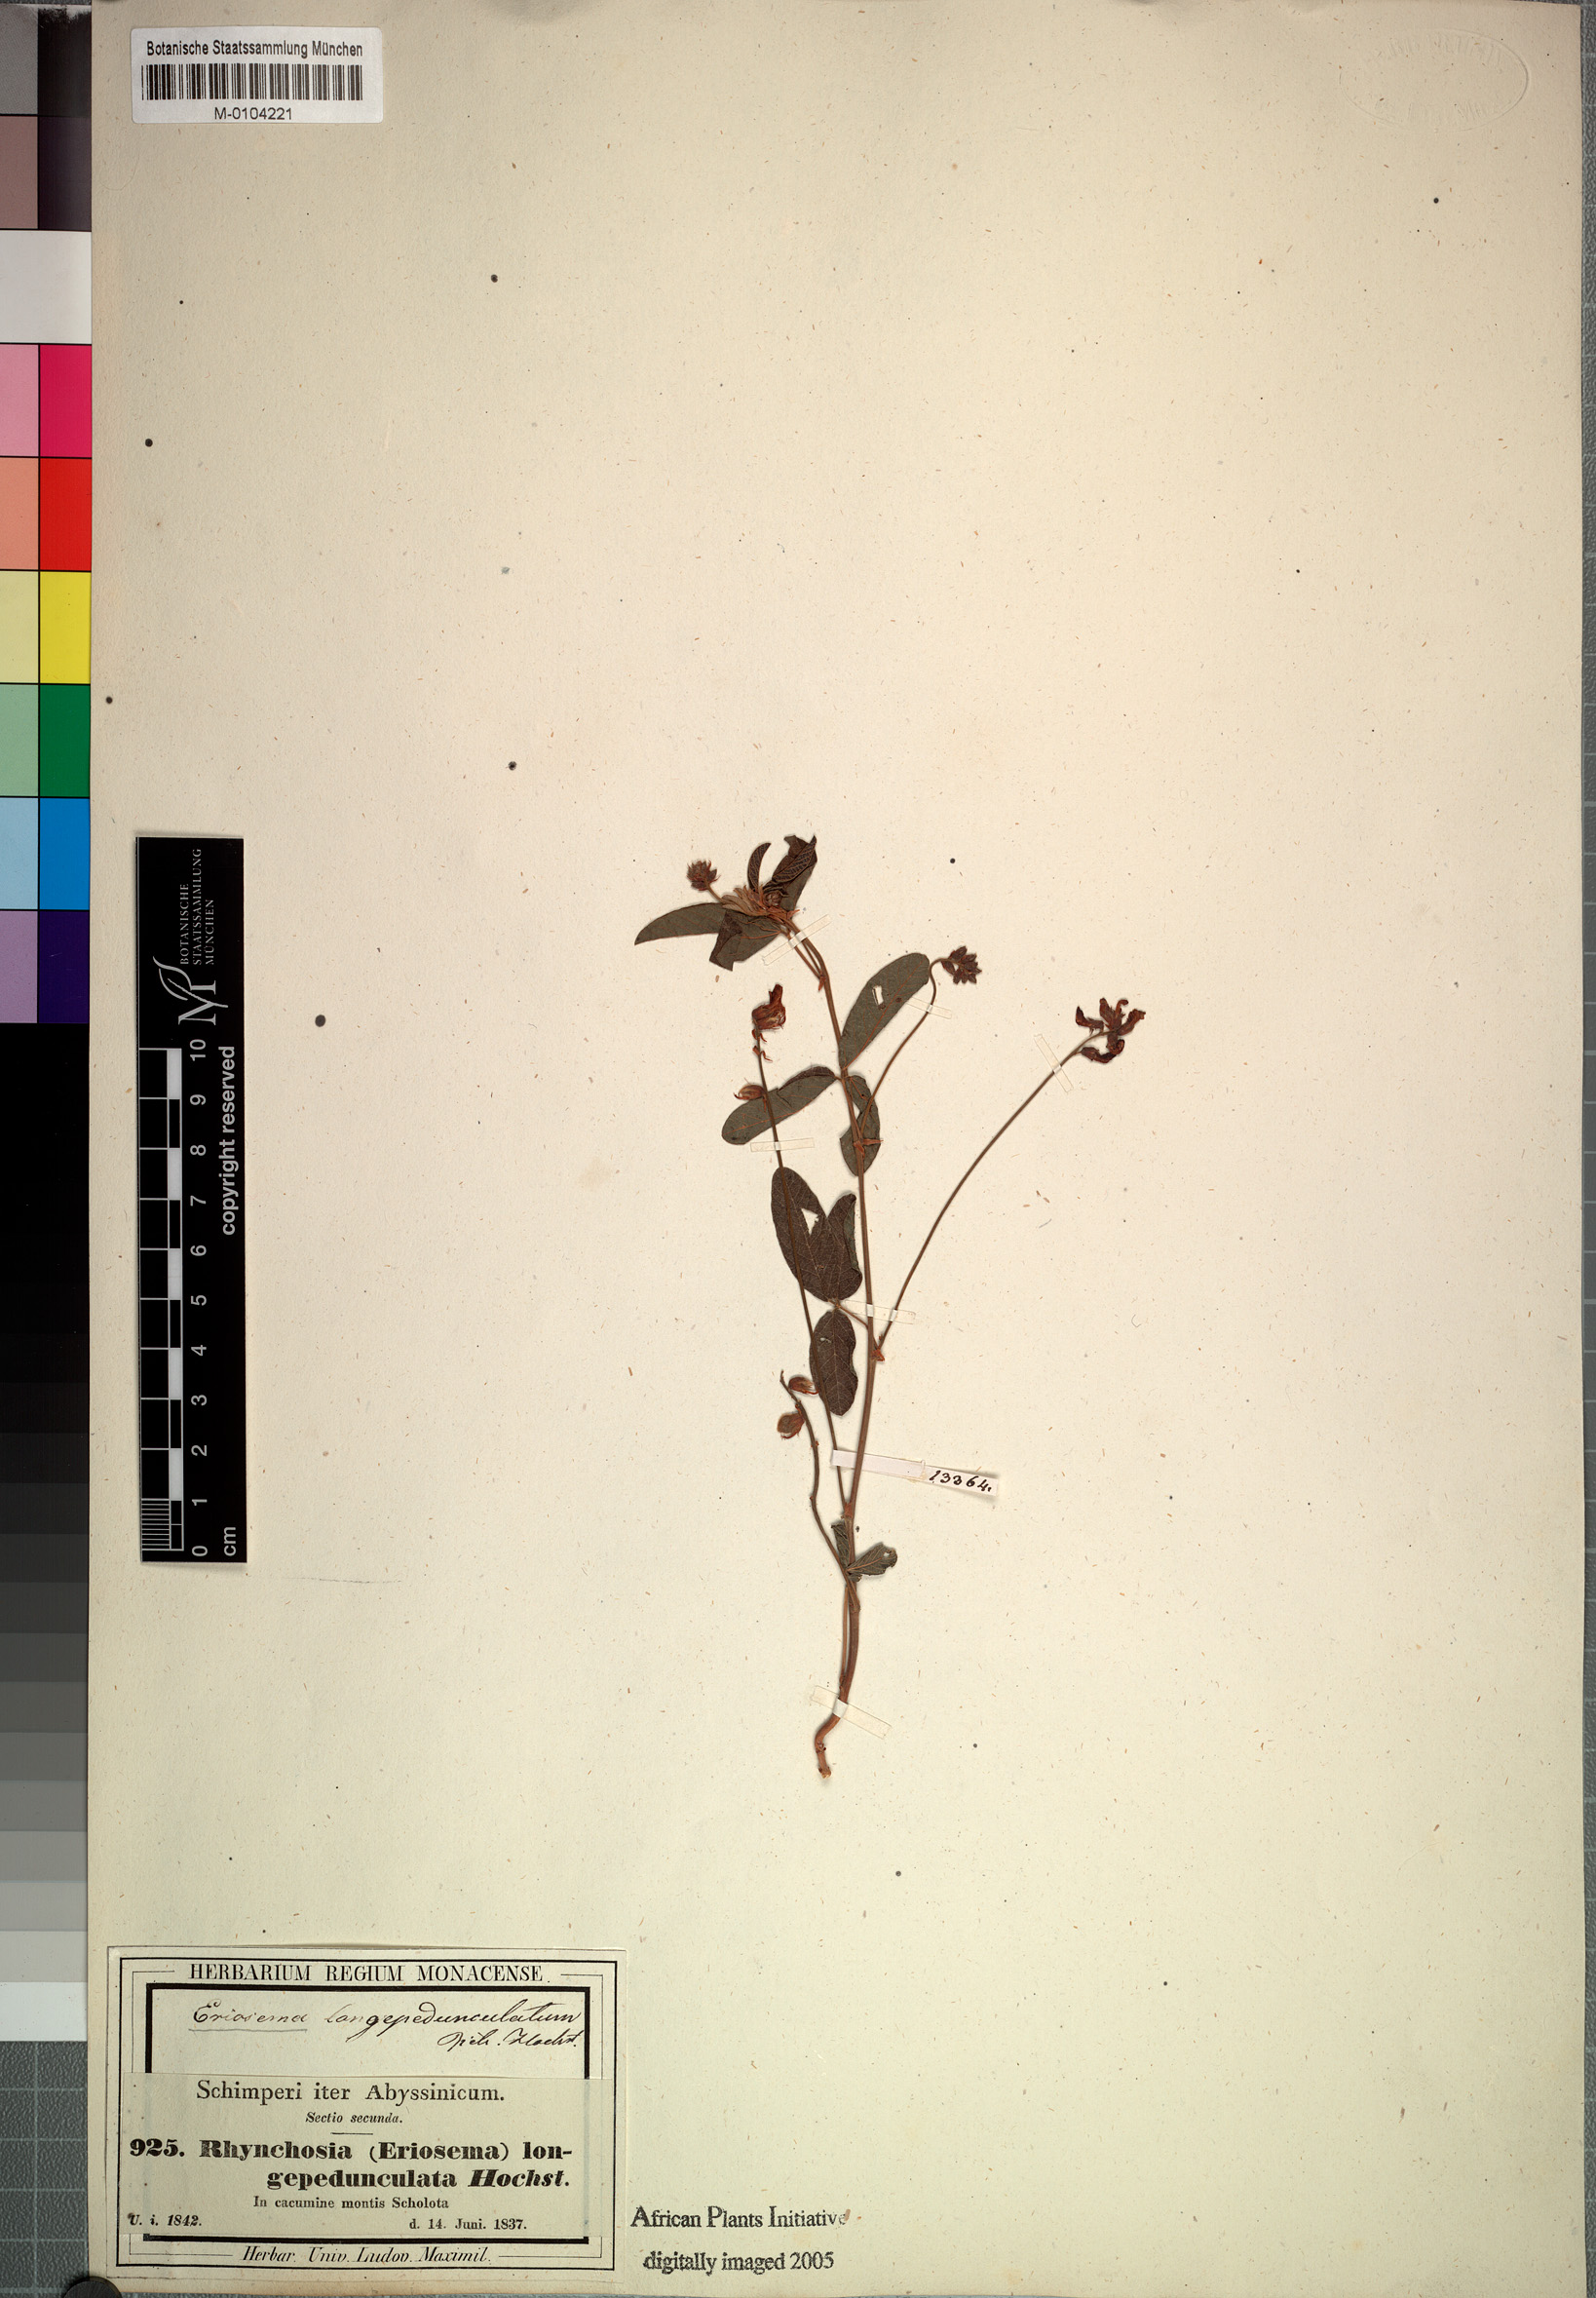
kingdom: Plantae
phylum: Tracheophyta
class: Magnoliopsida
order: Fabales
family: Fabaceae
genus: Eriosema
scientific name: Eriosema longipedunculatum
